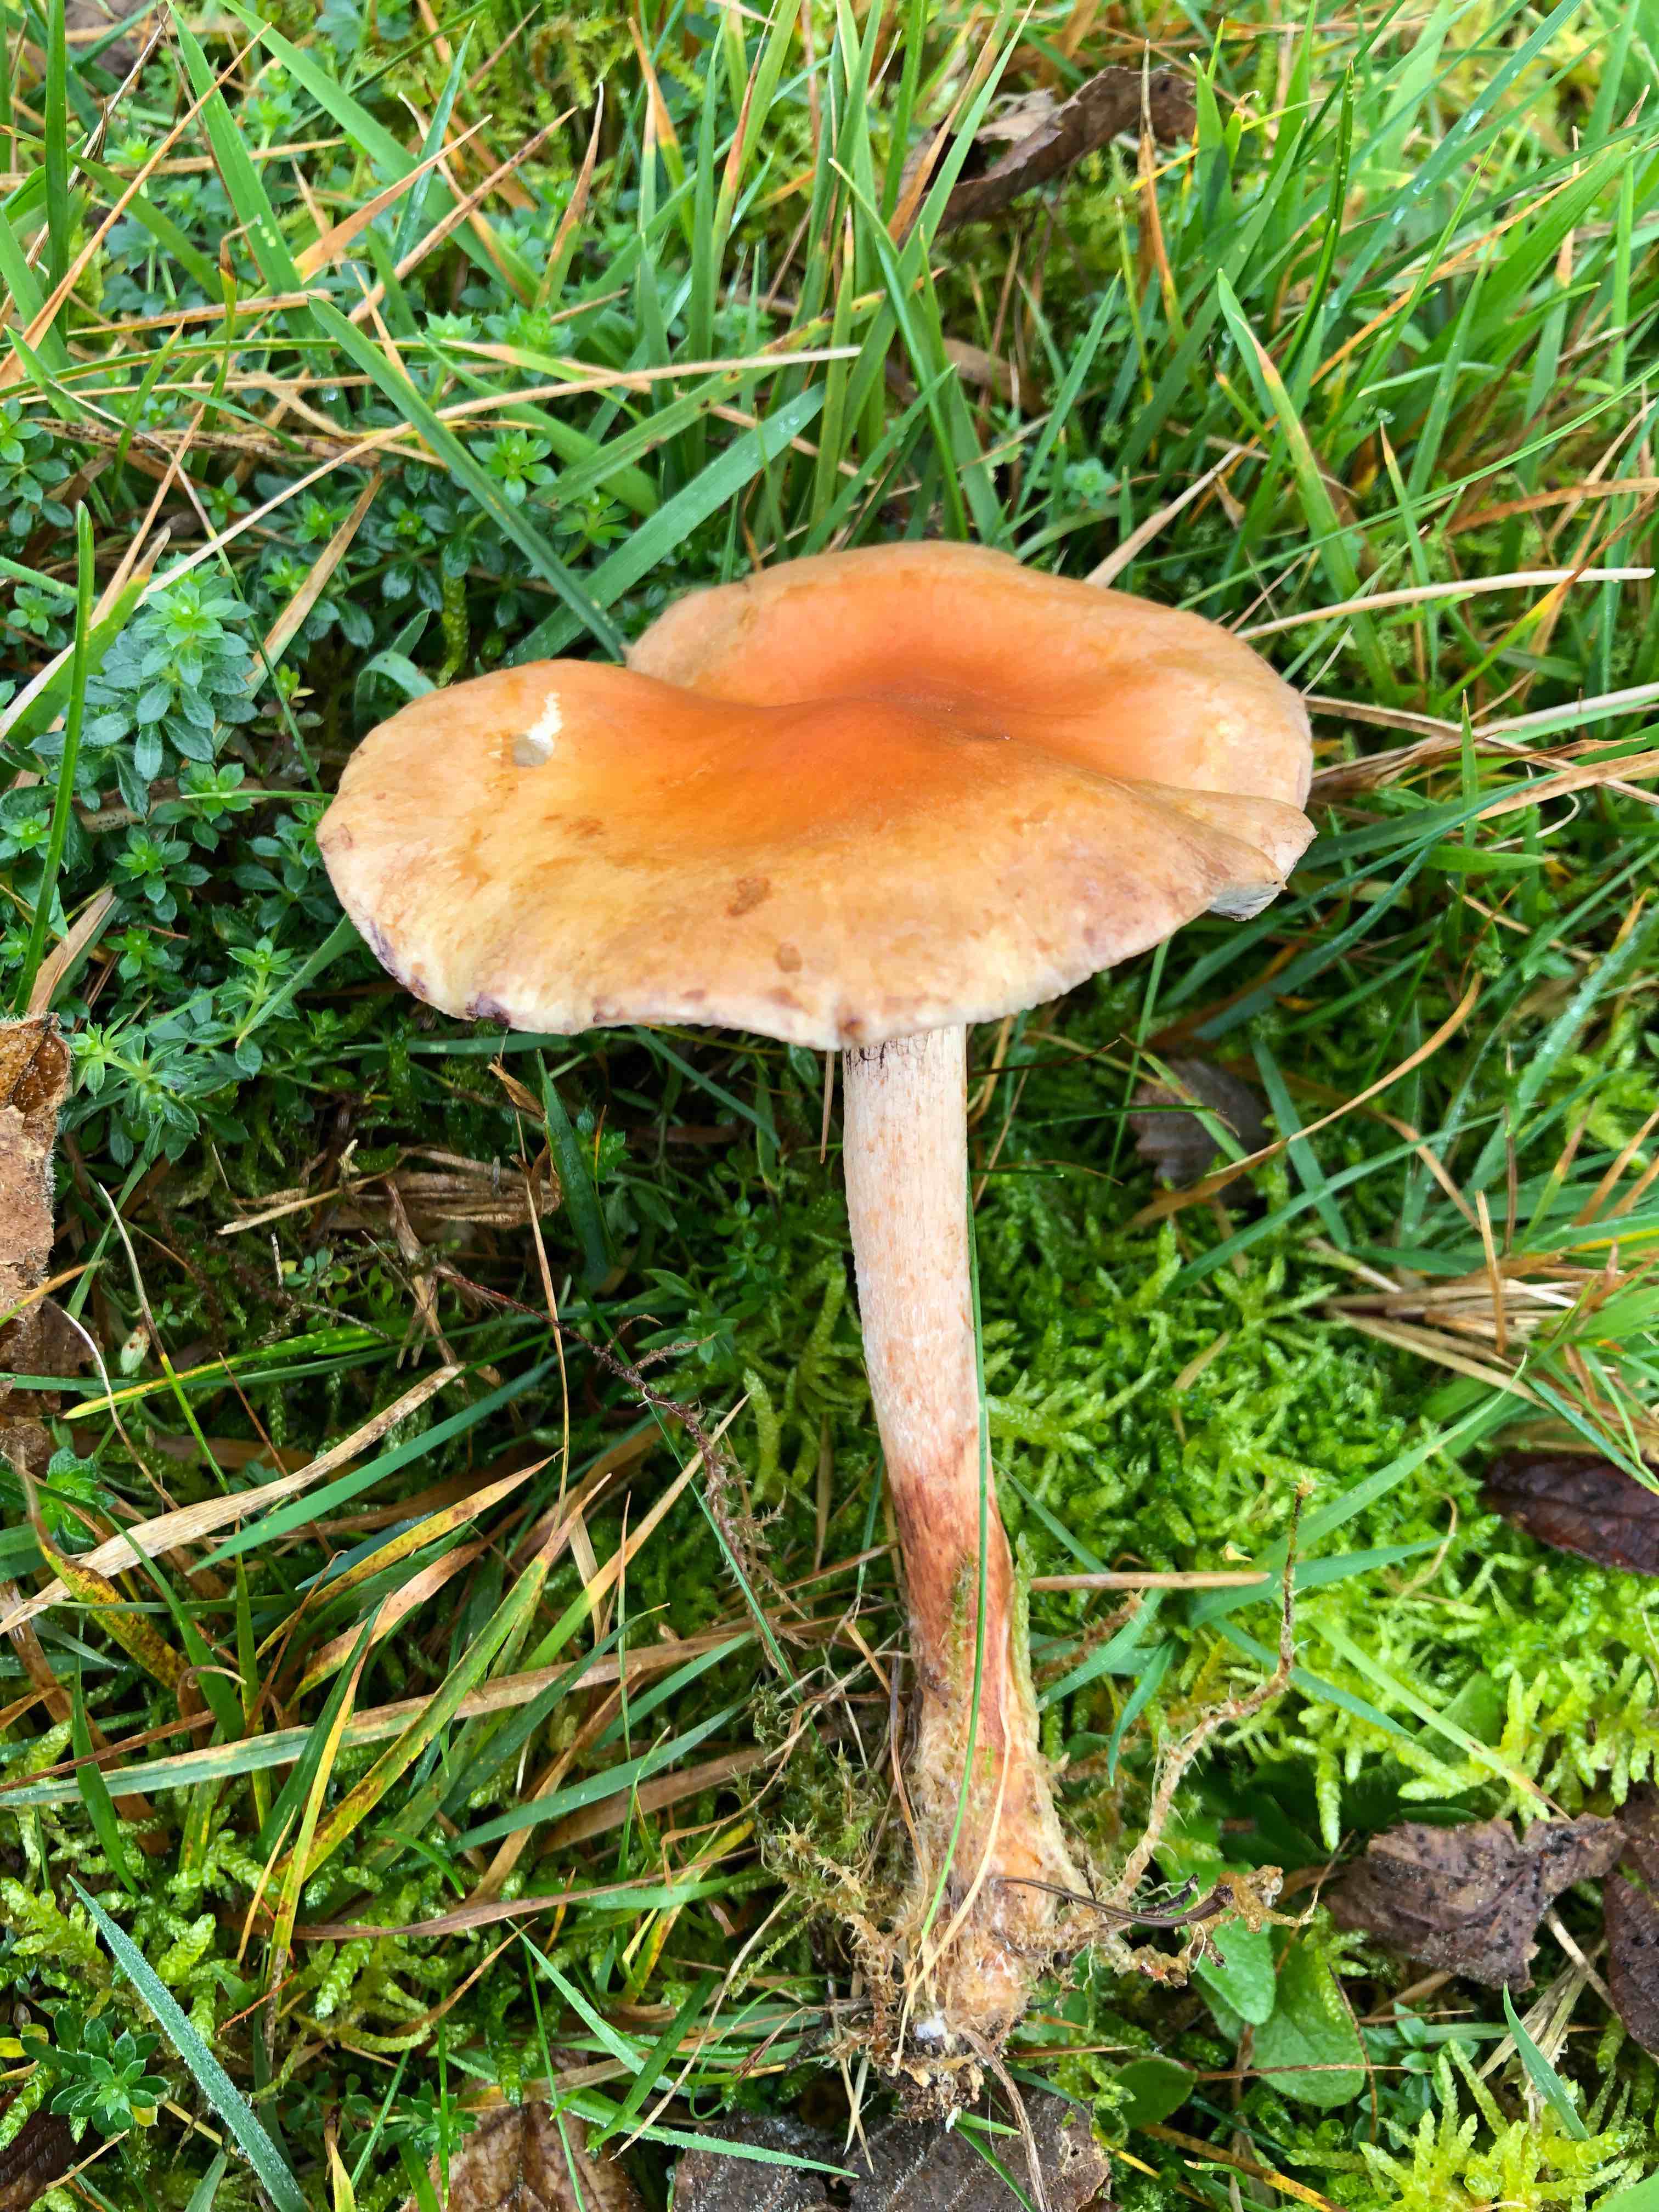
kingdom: Fungi
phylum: Basidiomycota
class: Agaricomycetes
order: Agaricales
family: Strophariaceae
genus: Hypholoma
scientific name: Hypholoma lateritium
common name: teglrød svovlhat
